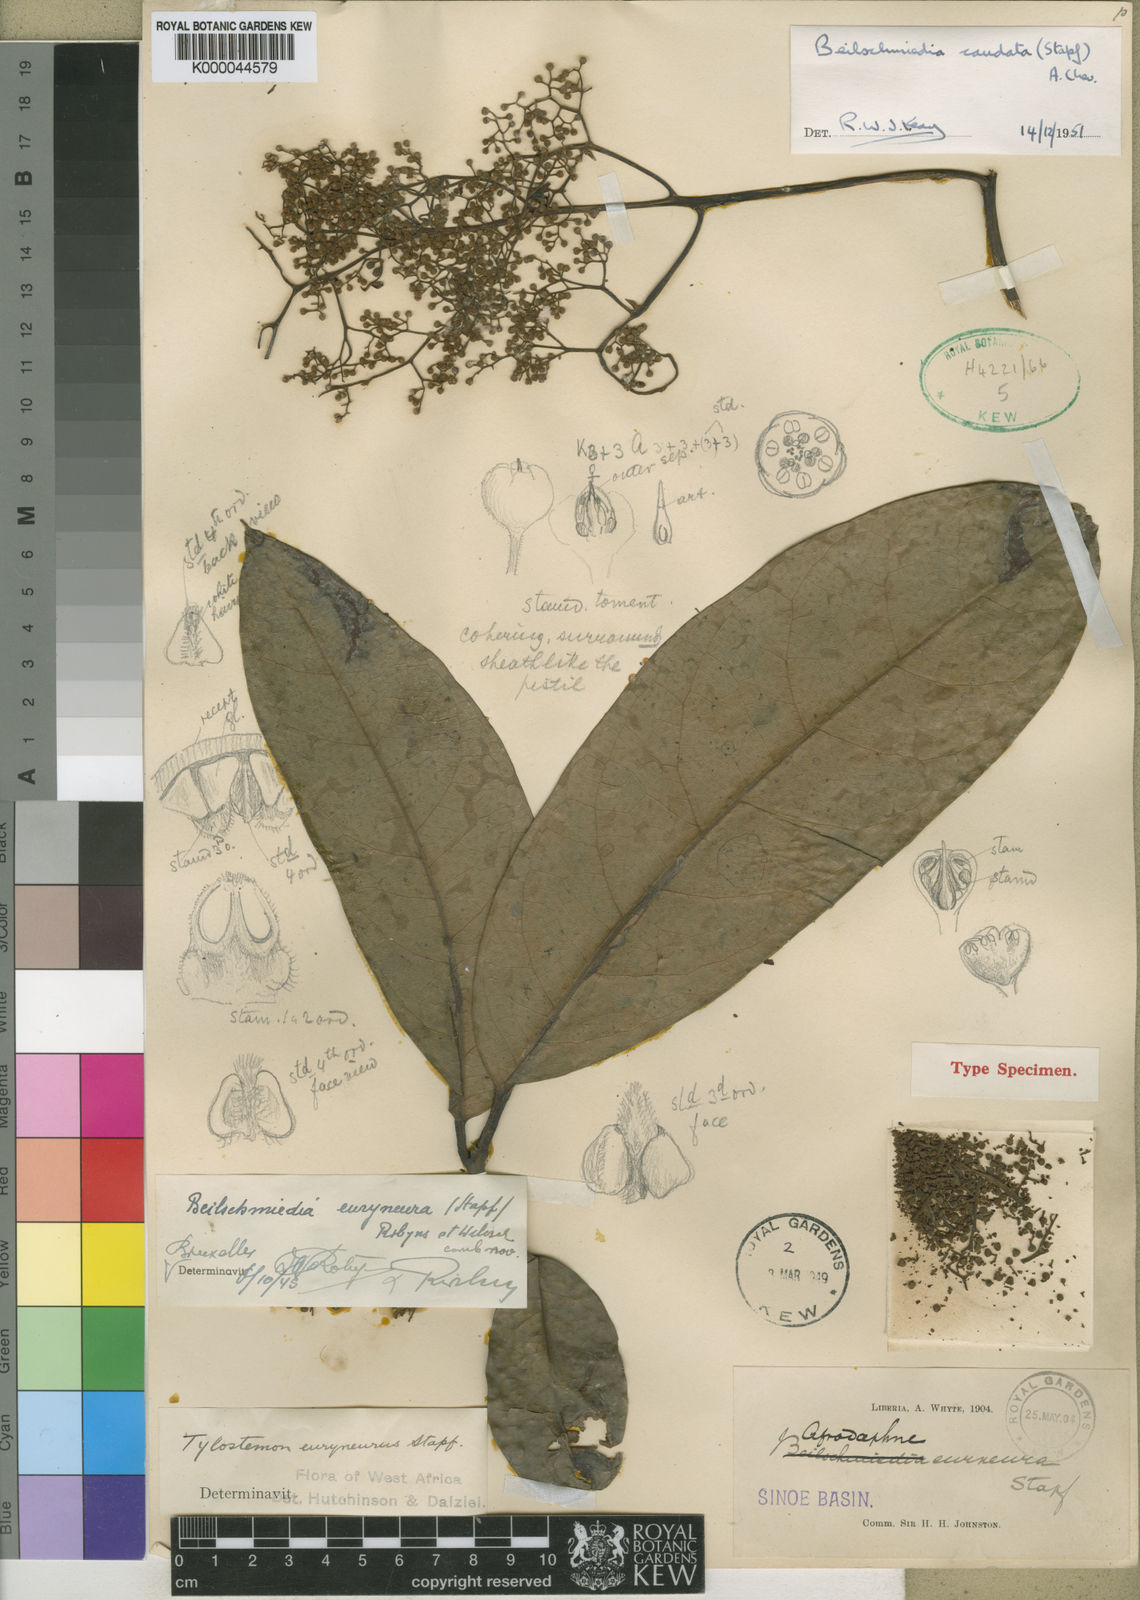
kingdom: Plantae
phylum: Tracheophyta
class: Magnoliopsida
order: Laurales
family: Lauraceae
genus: Beilschmiedia
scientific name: Beilschmiedia caudata
